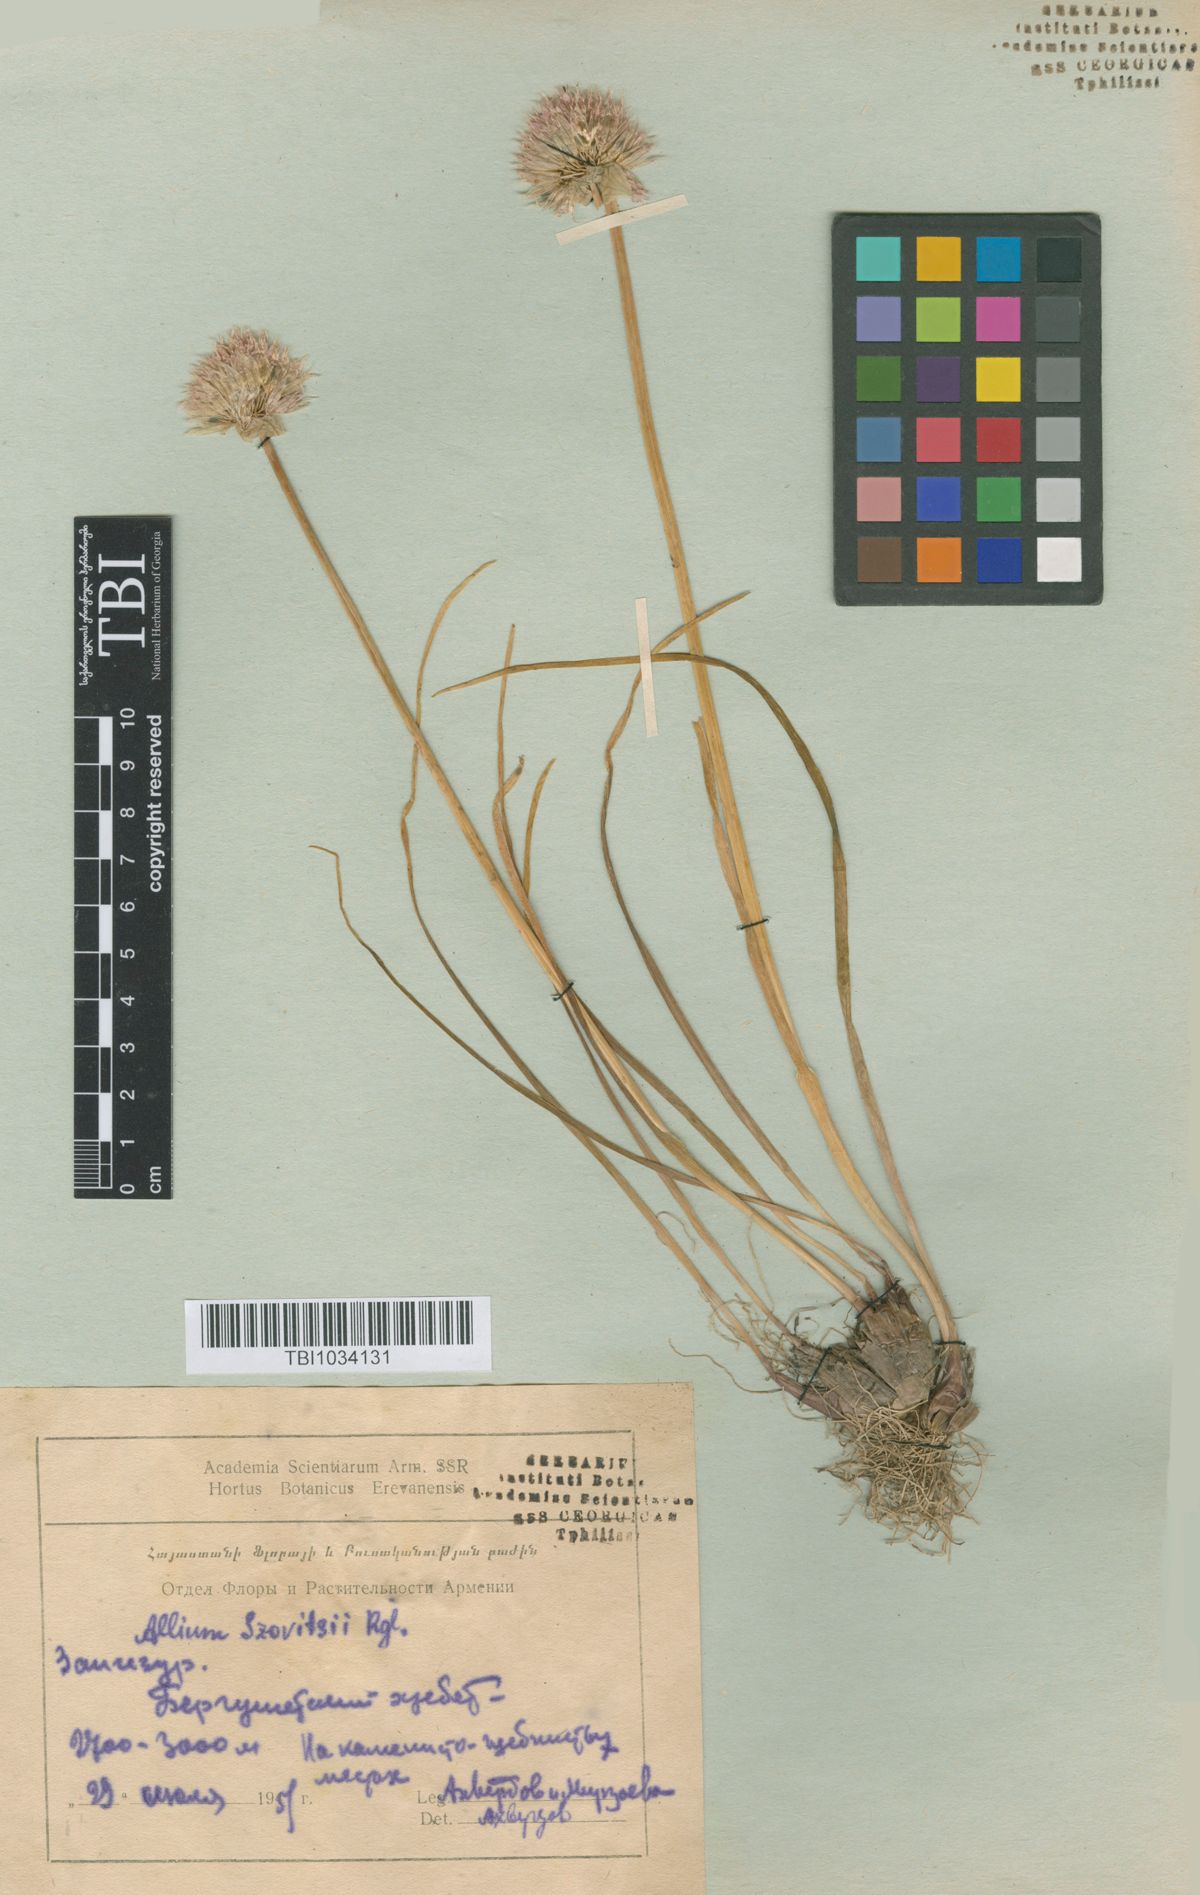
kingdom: Plantae
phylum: Tracheophyta
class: Liliopsida
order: Asparagales
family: Amaryllidaceae
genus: Allium
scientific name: Allium schoenoprasum
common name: Chives
